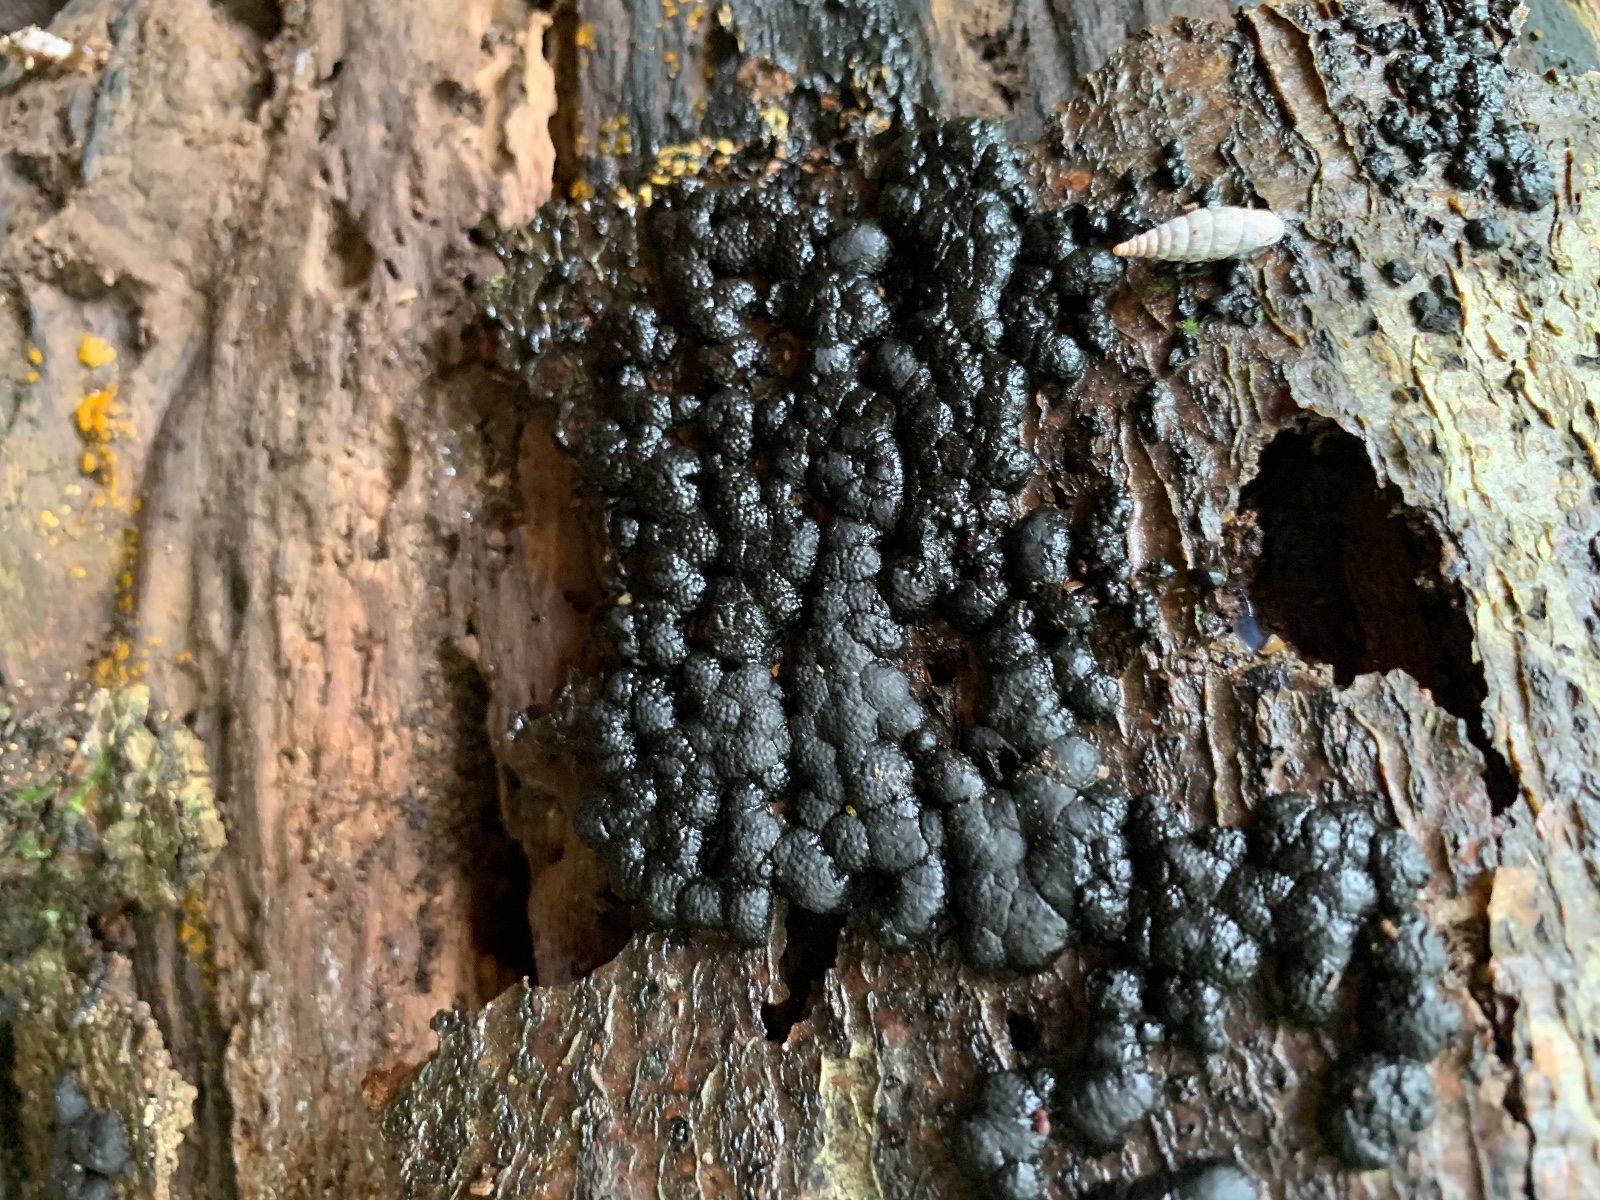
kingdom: Fungi
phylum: Ascomycota
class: Sordariomycetes
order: Xylariales
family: Hypoxylaceae
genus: Jackrogersella
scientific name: Jackrogersella cohaerens
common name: sammenflydende kulbær
